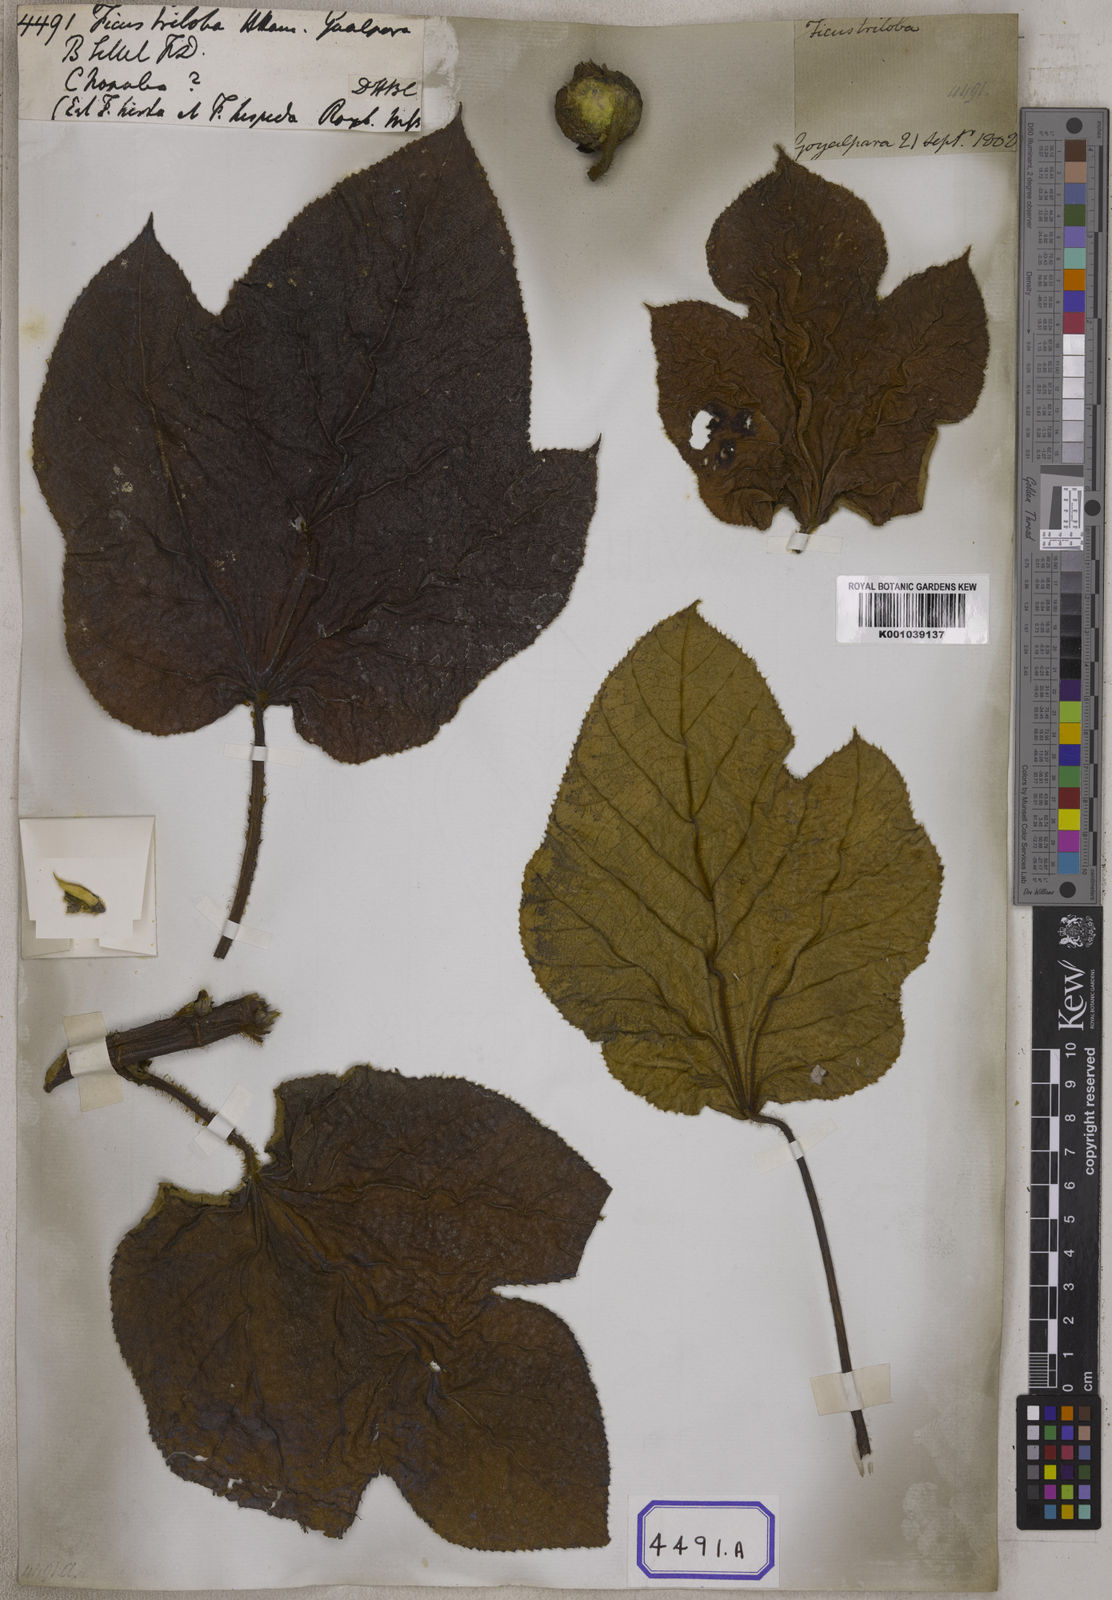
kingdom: Plantae
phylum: Tracheophyta
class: Magnoliopsida
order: Rosales
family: Moraceae
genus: Ficus
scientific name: Ficus
